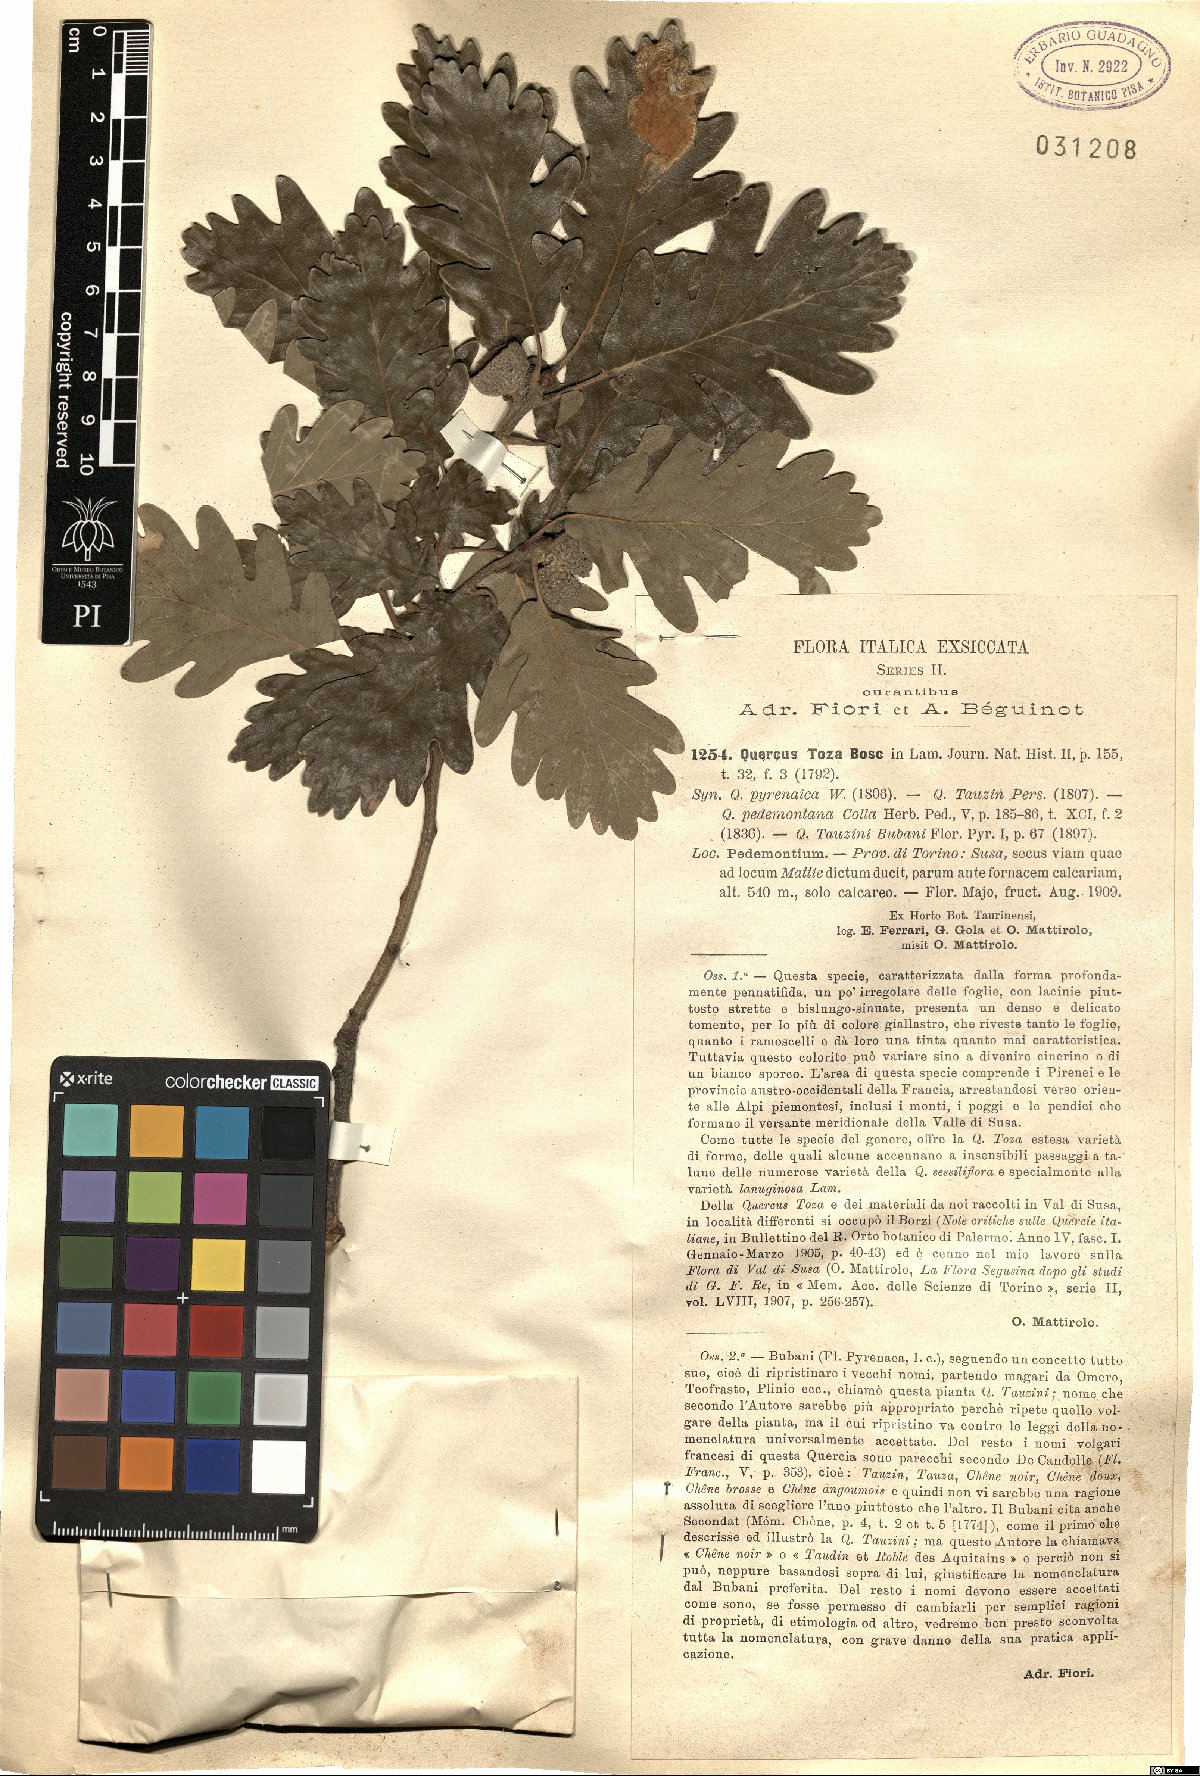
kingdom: Plantae
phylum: Tracheophyta
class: Magnoliopsida
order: Fagales
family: Fagaceae
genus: Quercus
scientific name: Quercus pyrenaica
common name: Pyrenean oak
